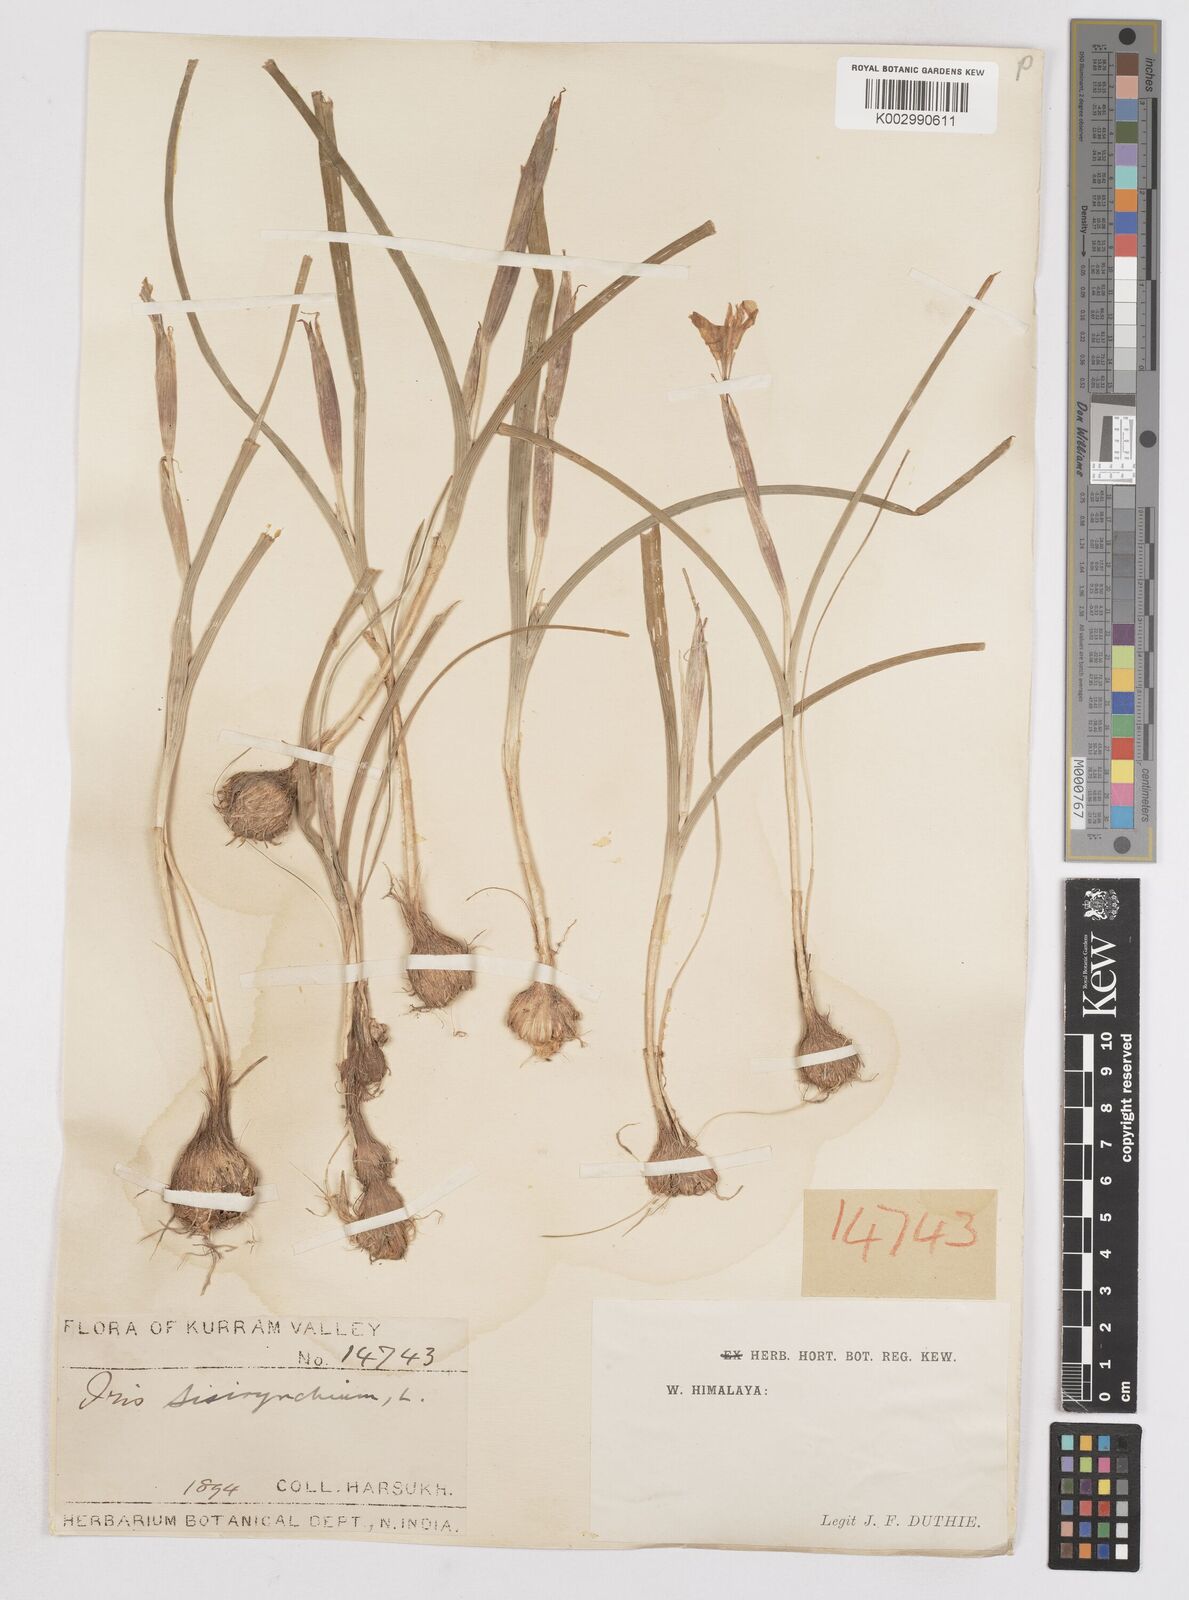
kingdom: Plantae
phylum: Tracheophyta
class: Liliopsida
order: Asparagales
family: Iridaceae
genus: Moraea
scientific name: Moraea sisyrinchium
